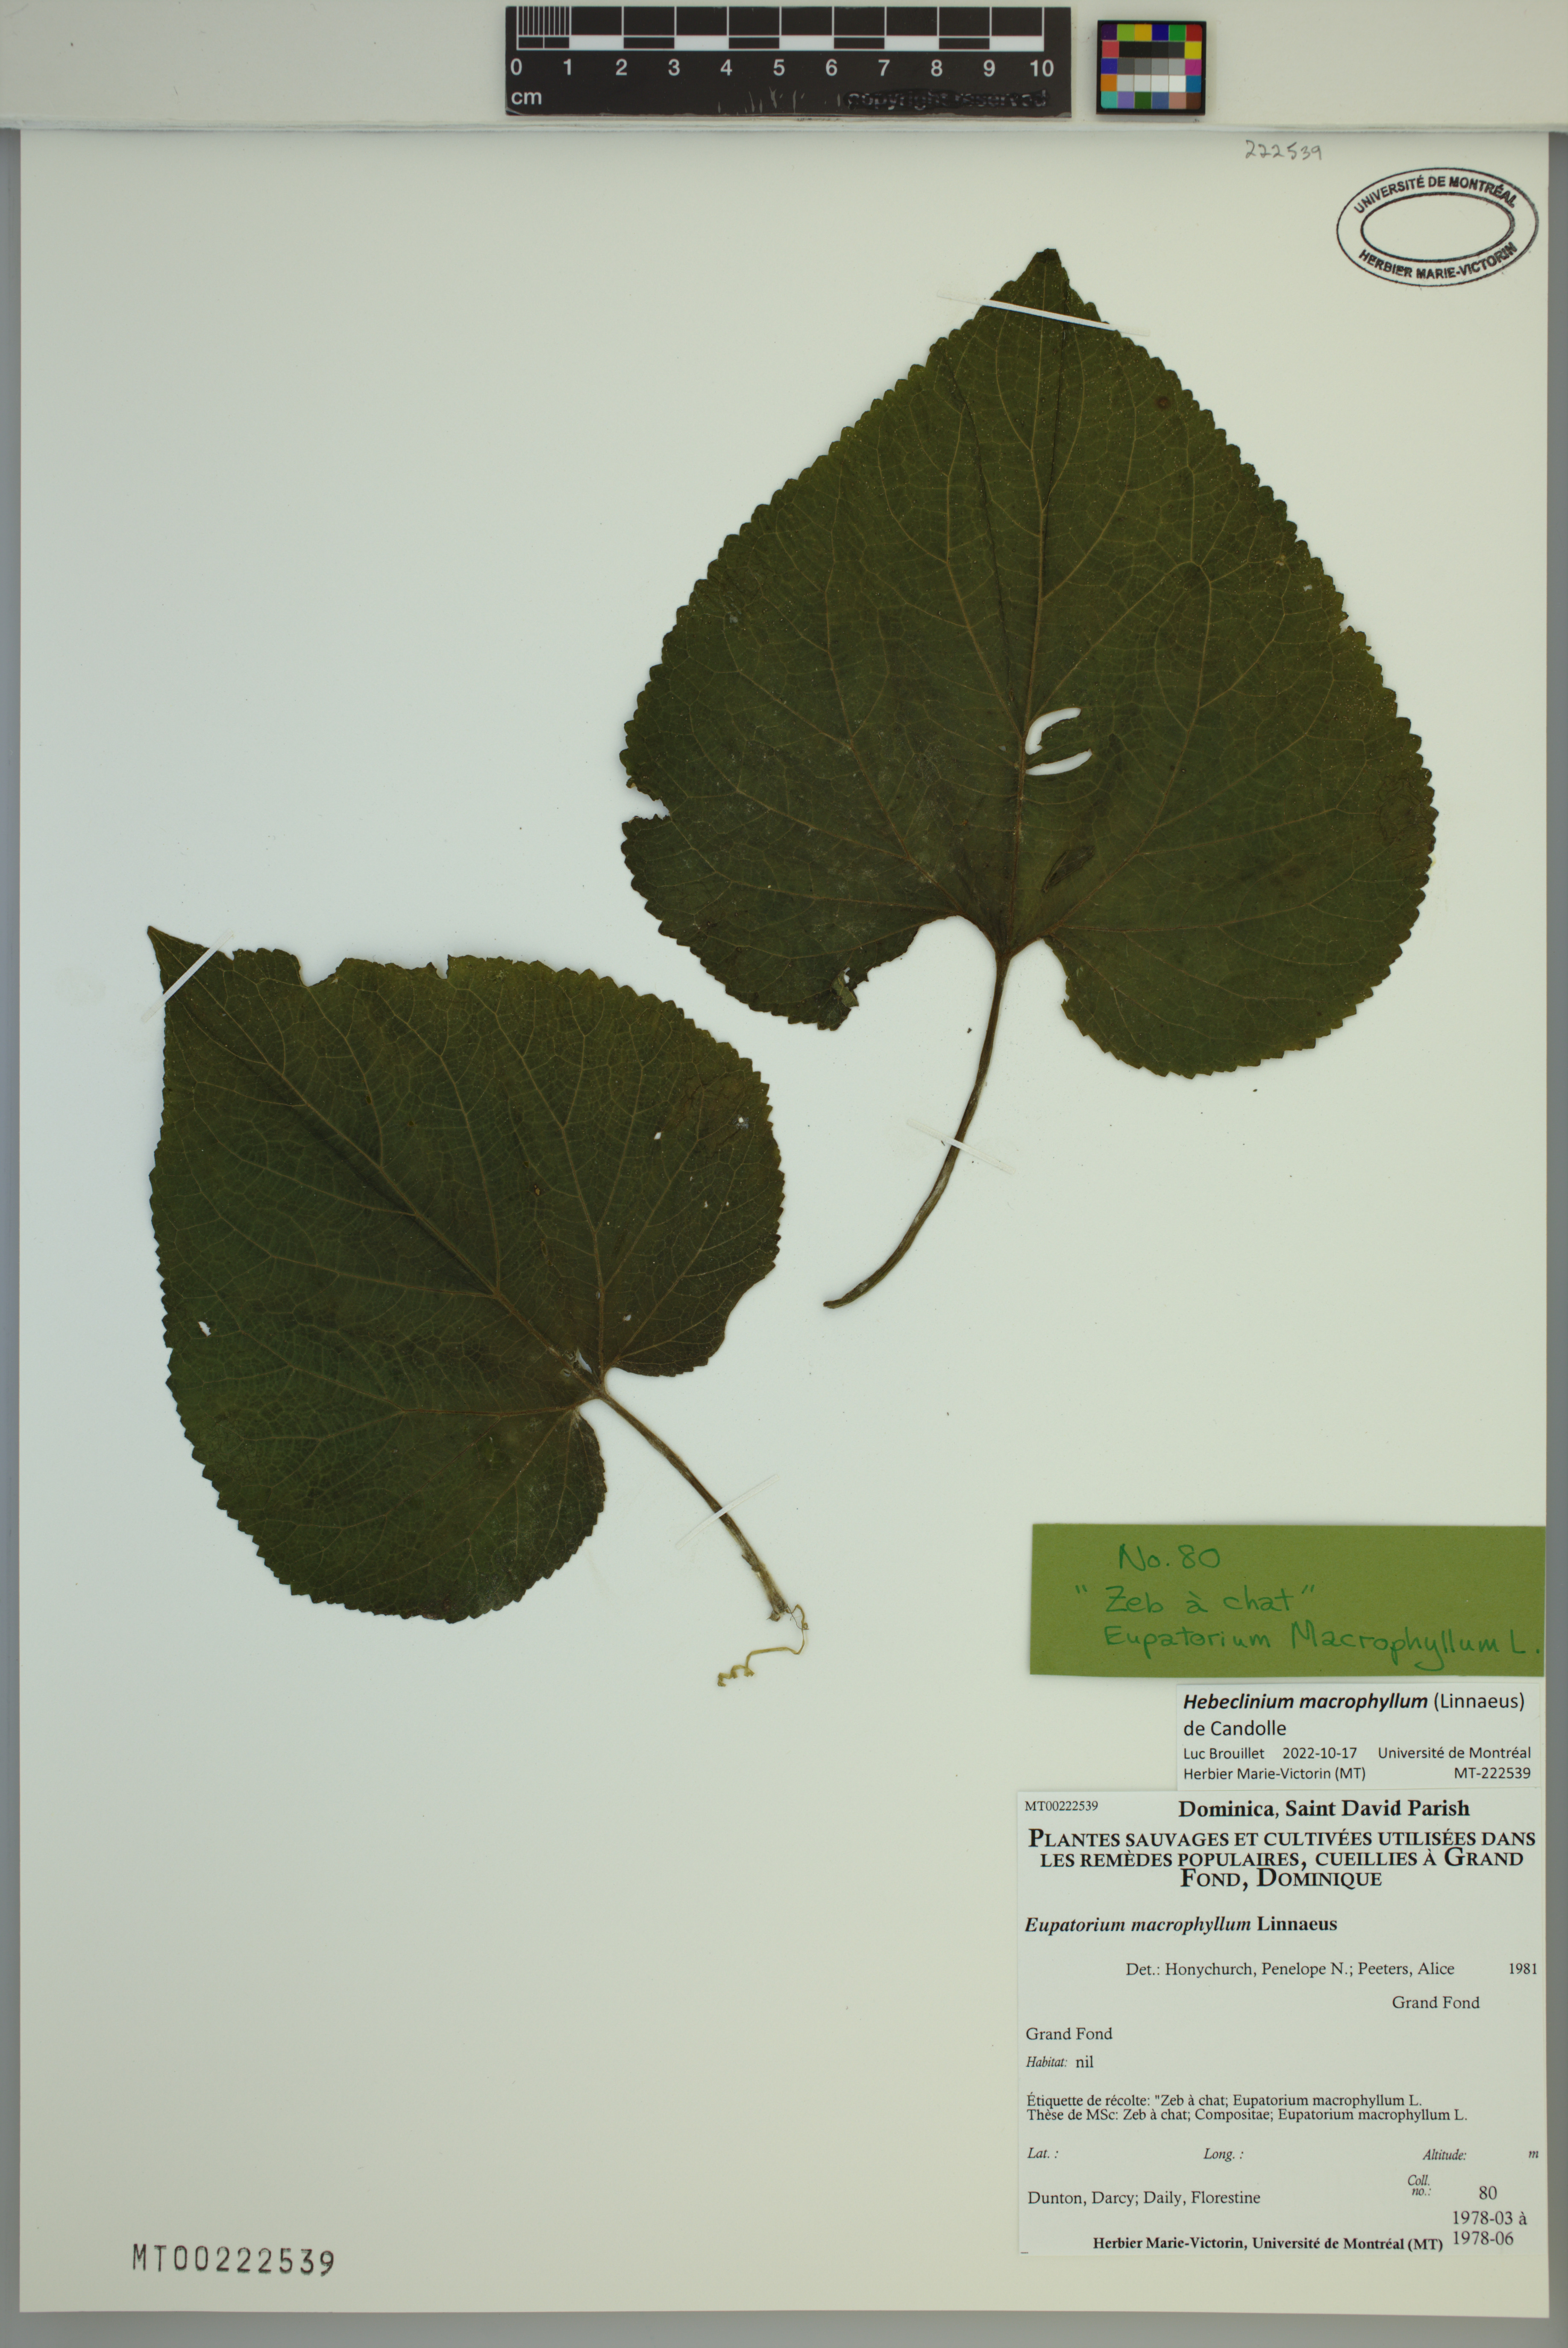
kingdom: Plantae
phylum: Tracheophyta
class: Magnoliopsida
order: Asterales
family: Asteraceae
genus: Hebeclinium
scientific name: Hebeclinium macrophyllum
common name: Largeleaf thoroughwort
